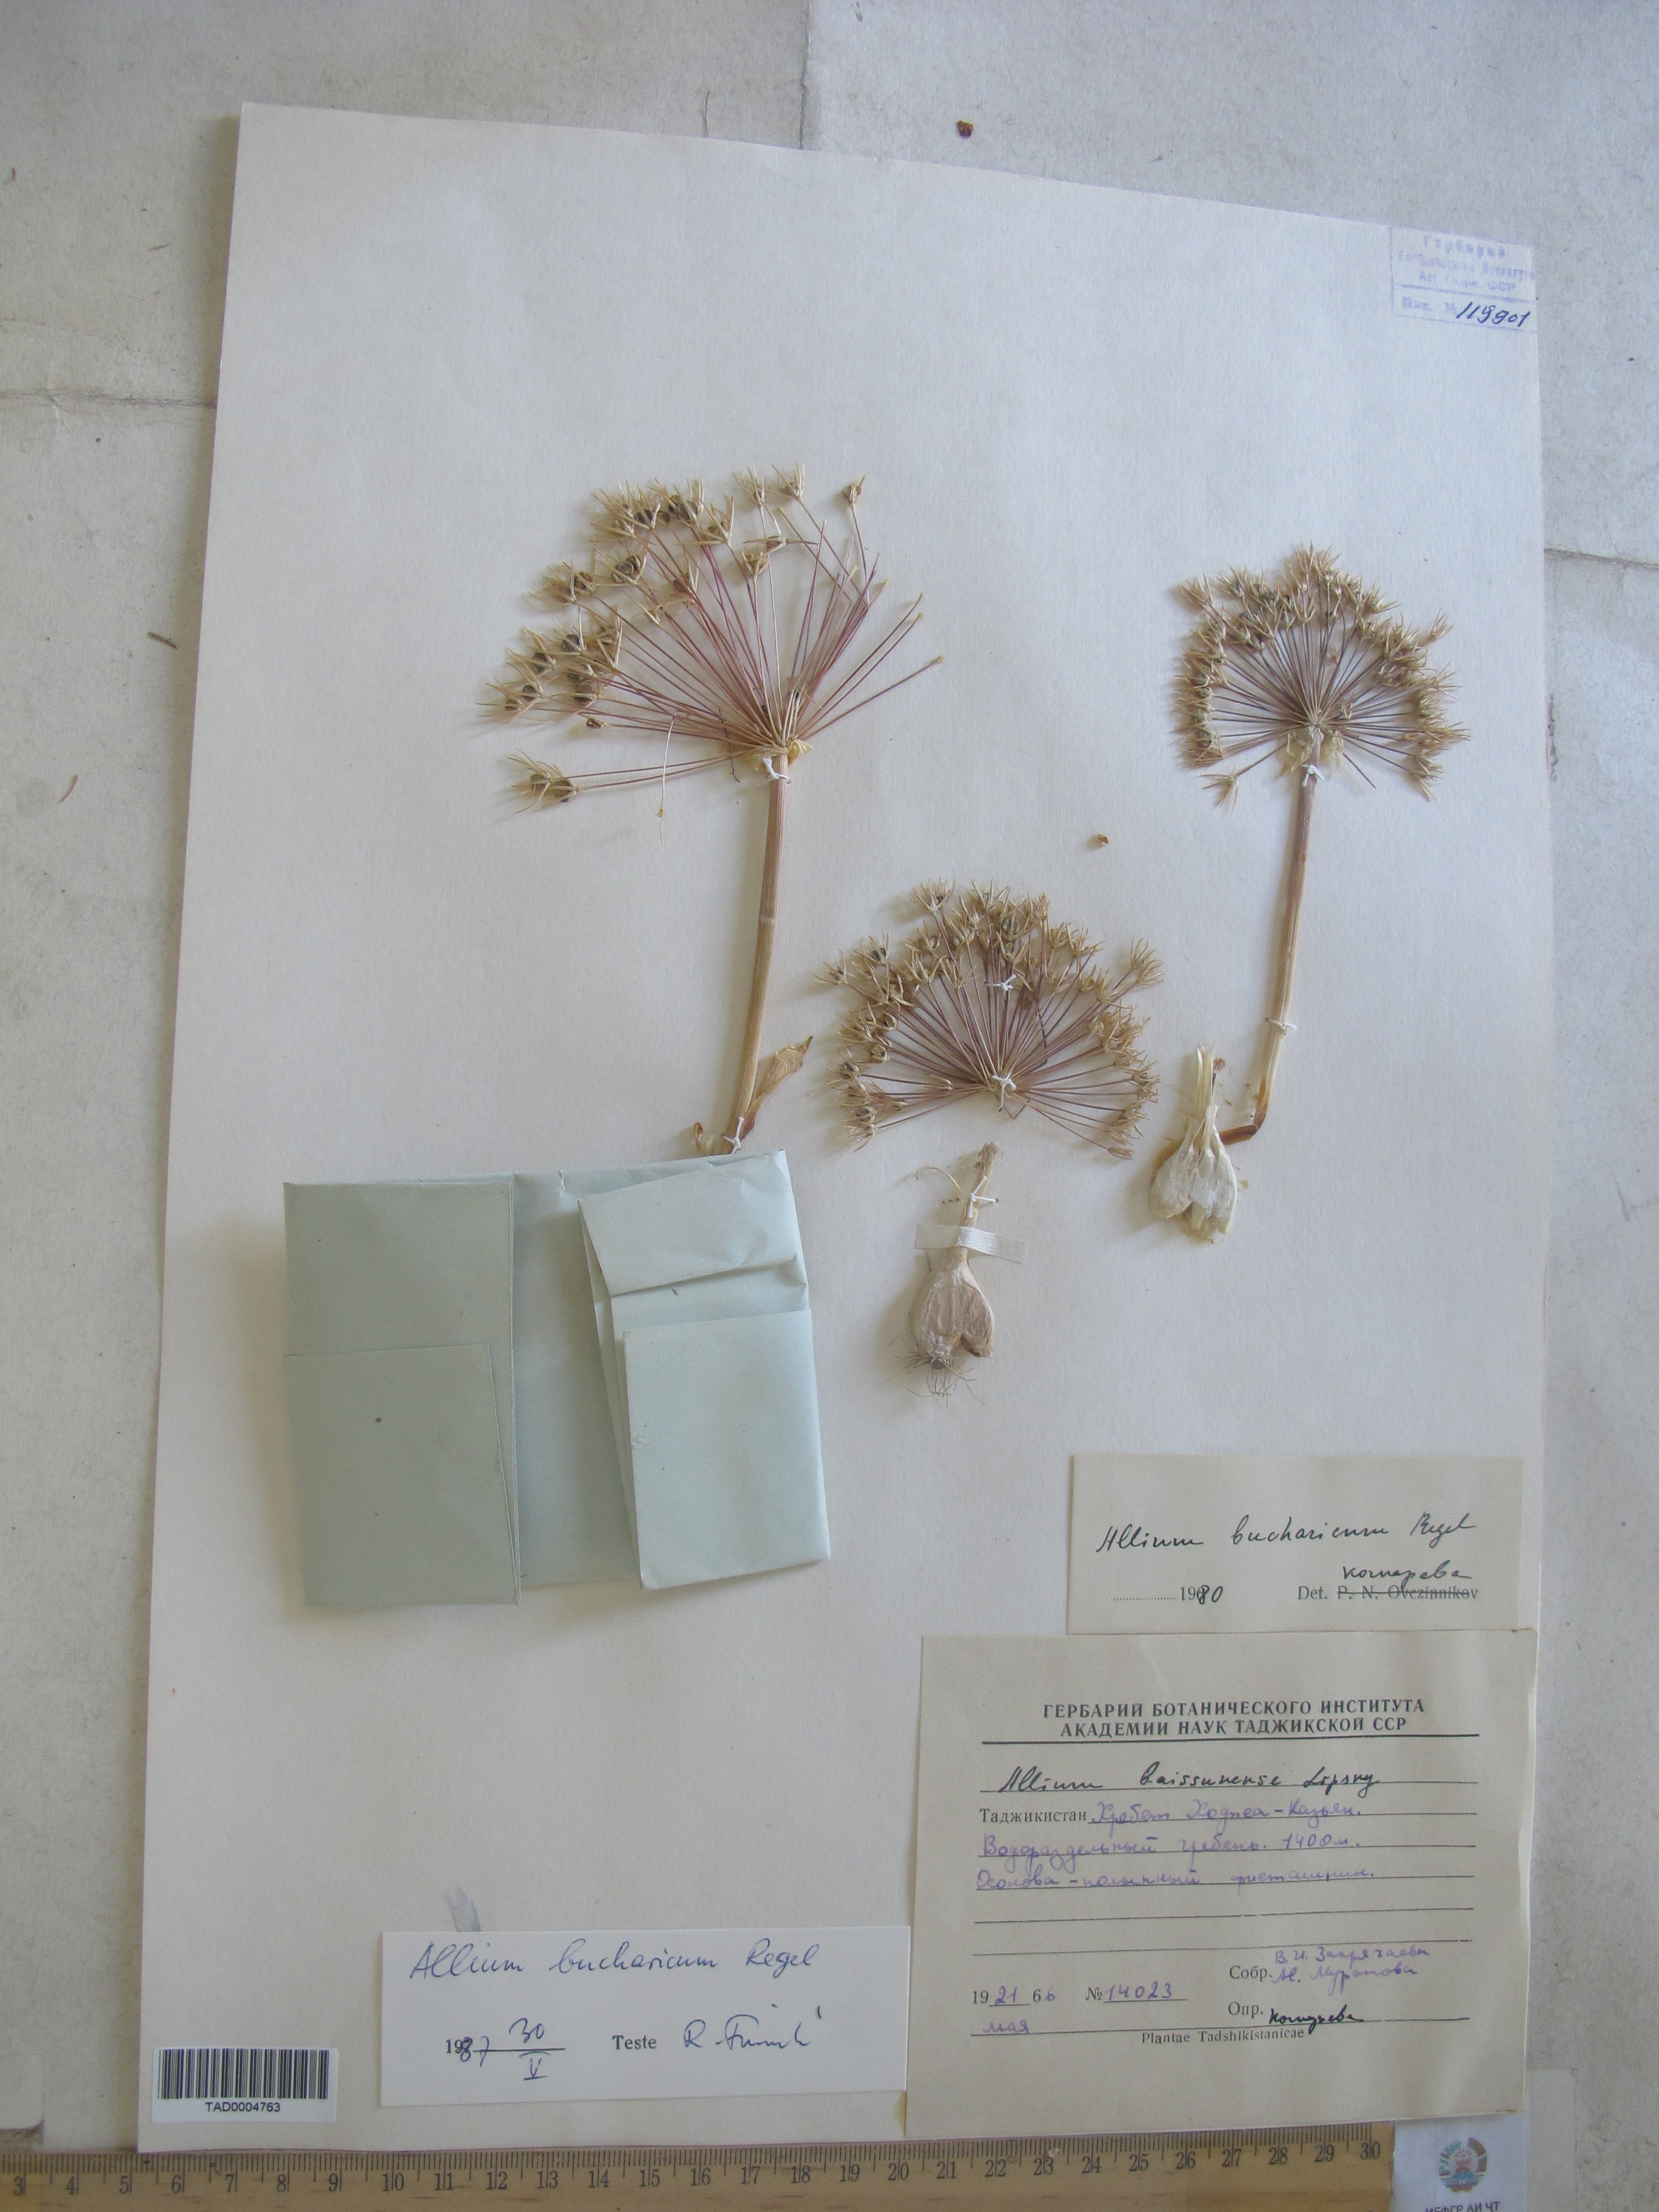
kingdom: Plantae
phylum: Tracheophyta
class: Liliopsida
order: Asparagales
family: Amaryllidaceae
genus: Allium
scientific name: Allium bucharicum
